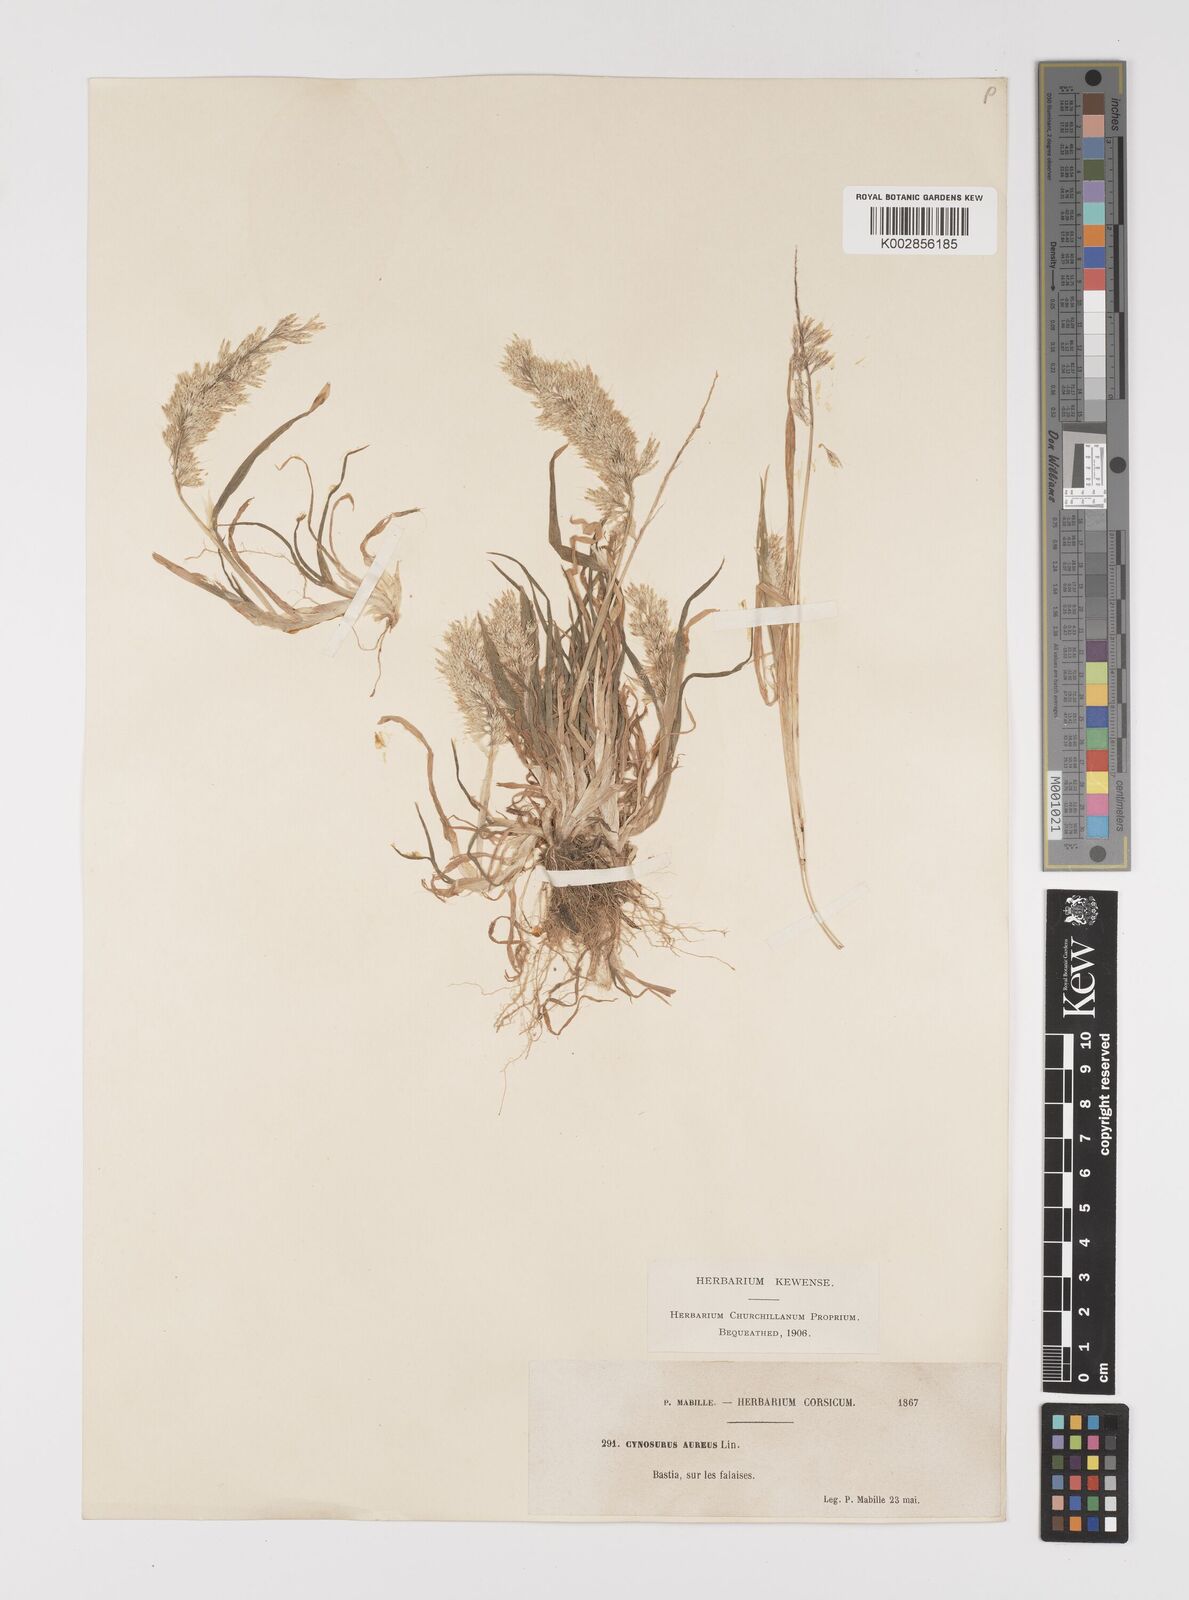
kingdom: Plantae
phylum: Tracheophyta
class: Liliopsida
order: Poales
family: Poaceae
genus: Lamarckia
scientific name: Lamarckia aurea
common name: Golden dog's-tail
